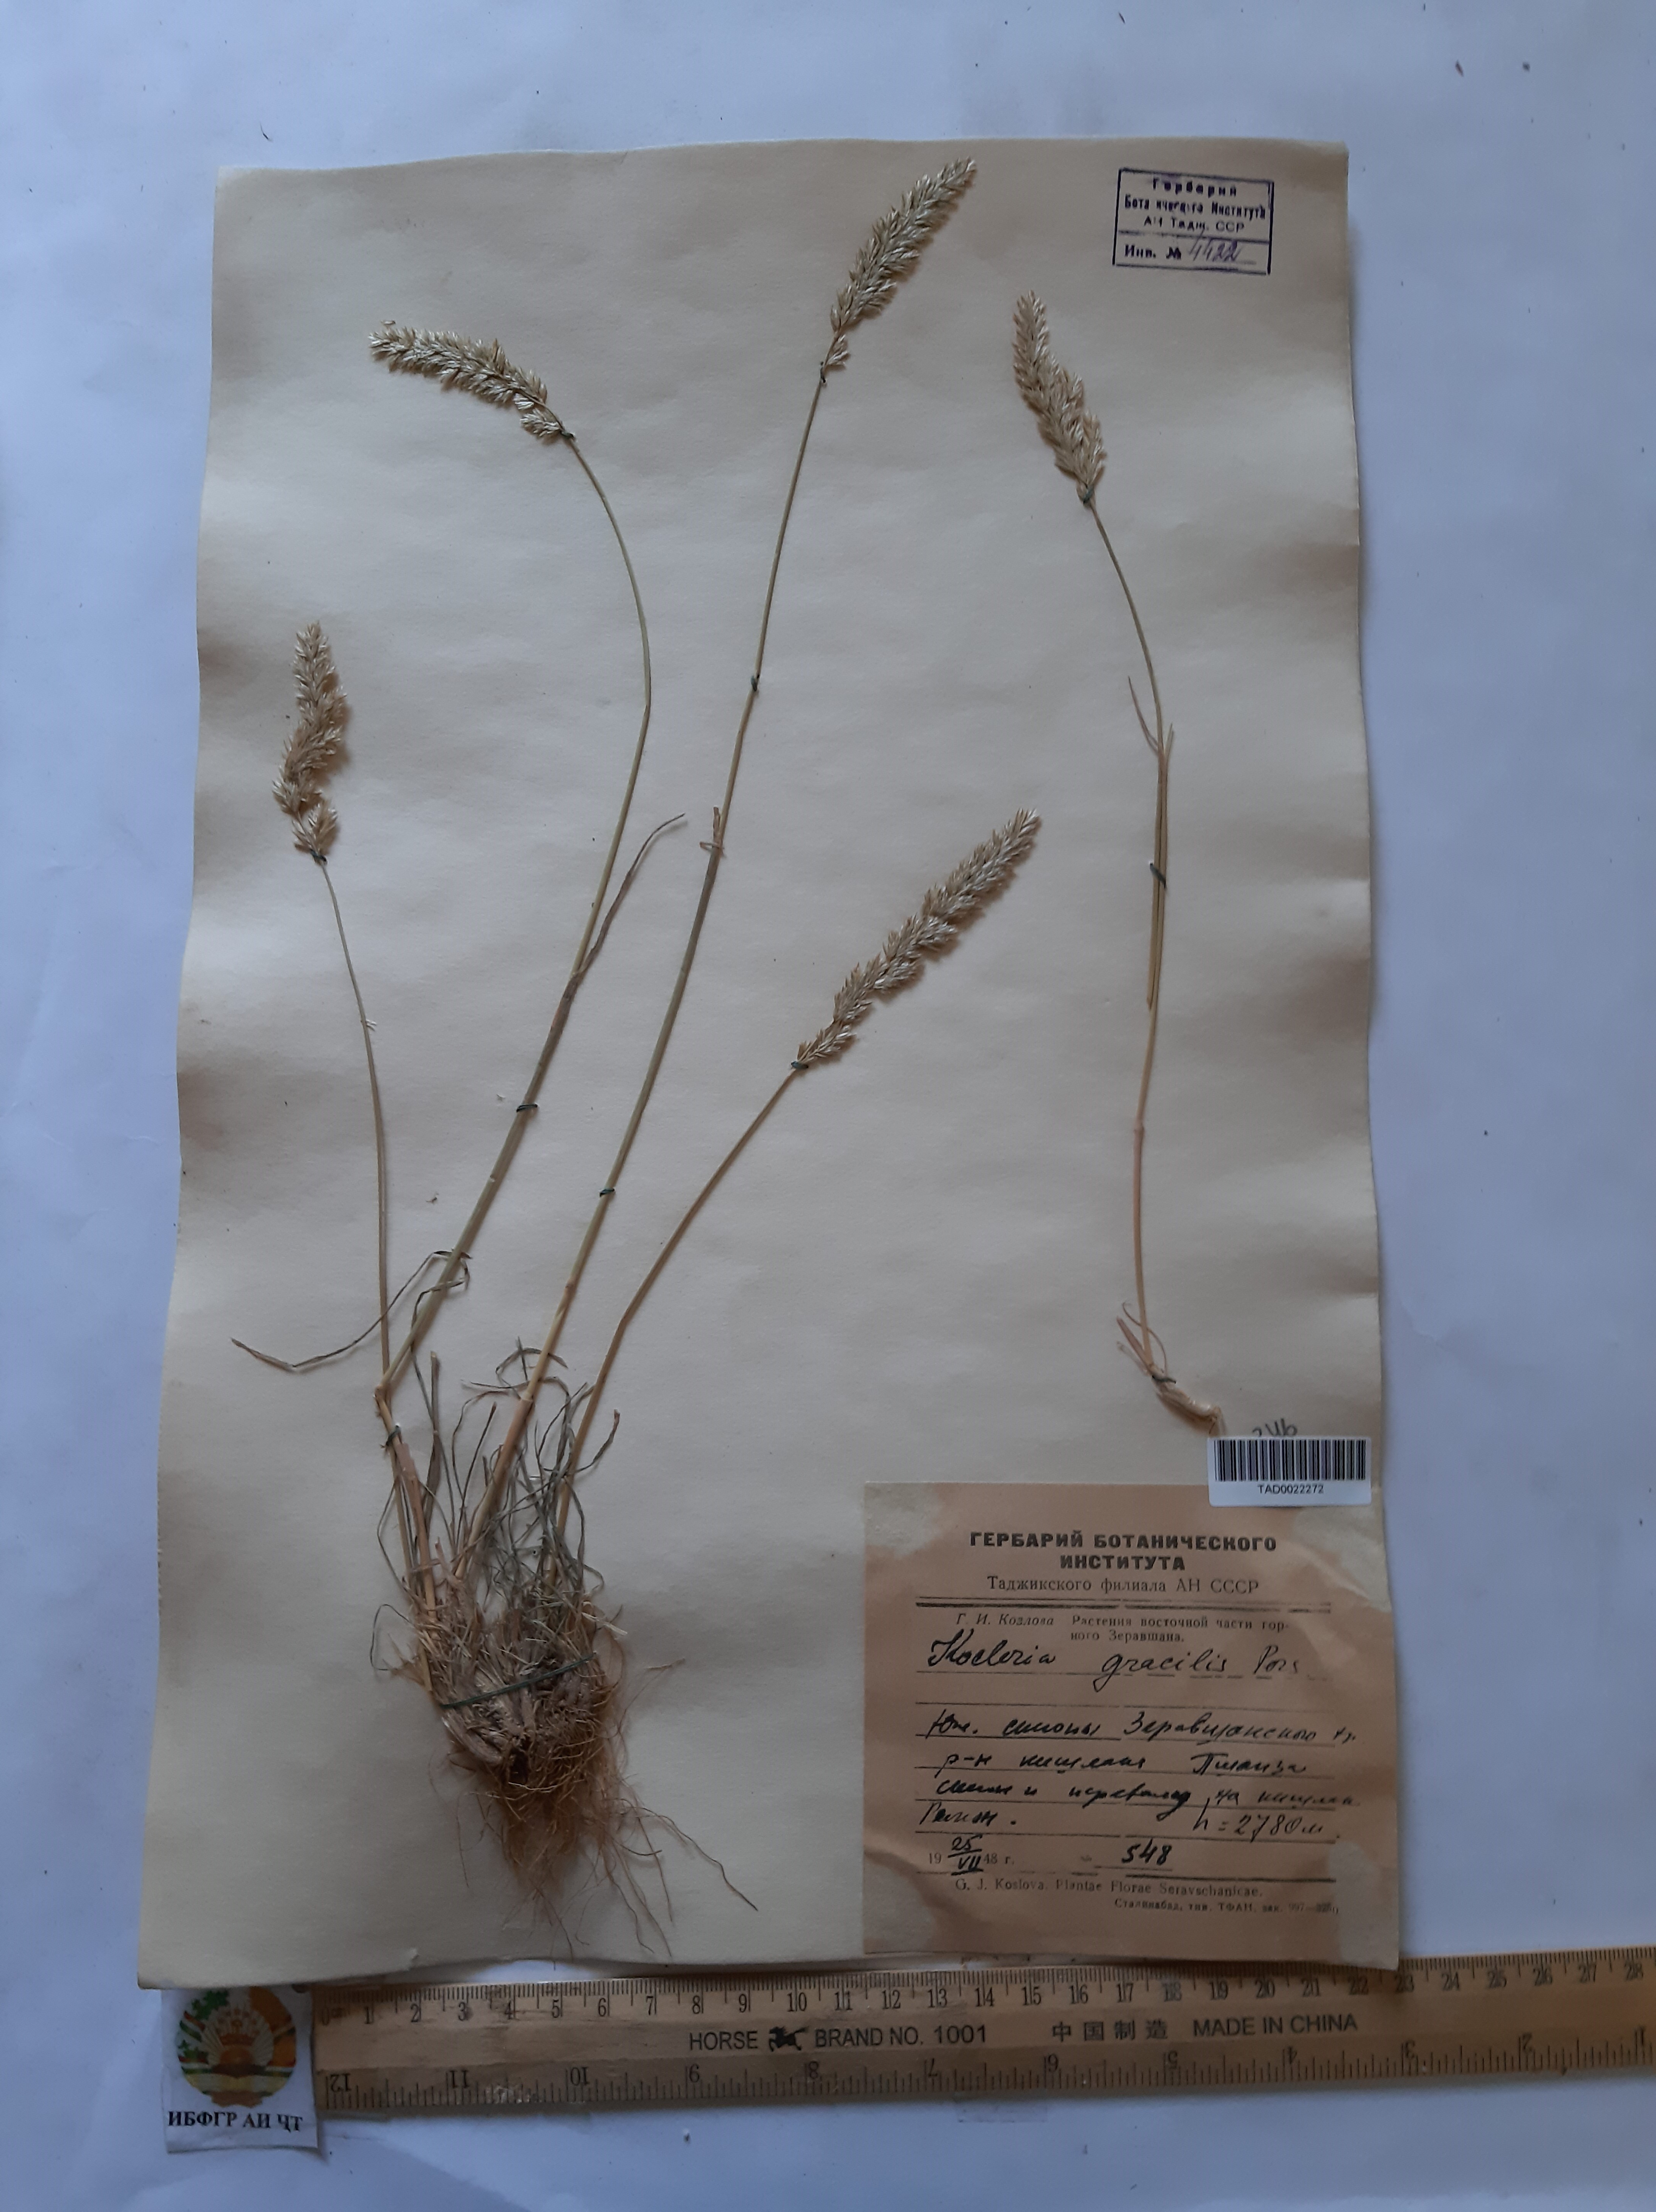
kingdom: Plantae
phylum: Tracheophyta
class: Liliopsida
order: Poales
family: Poaceae
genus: Koeleria
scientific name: Koeleria macrantha
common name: Crested hair-grass
